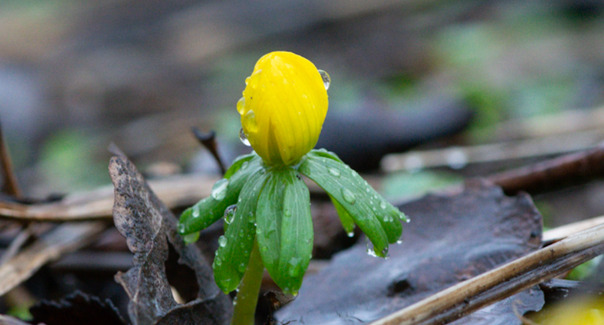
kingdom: Plantae
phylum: Tracheophyta
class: Magnoliopsida
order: Ranunculales
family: Ranunculaceae
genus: Eranthis
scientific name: Eranthis hyemalis
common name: Erantis
